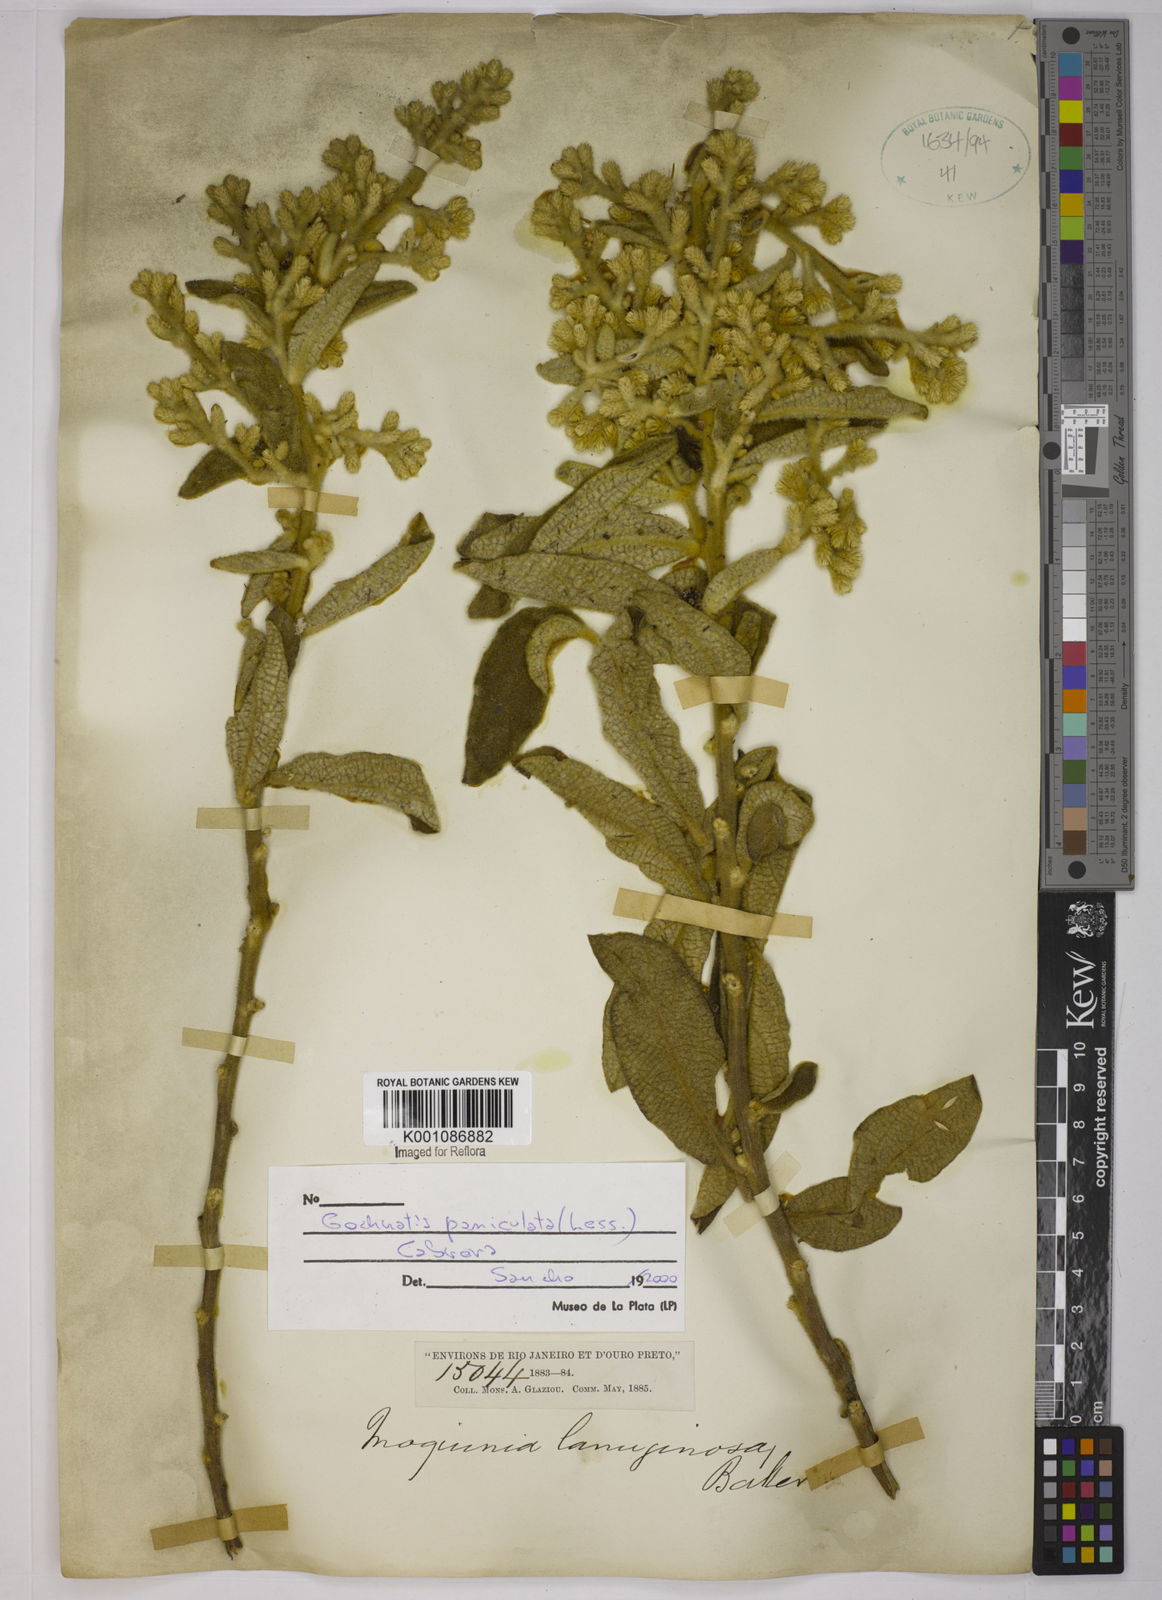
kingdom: Plantae
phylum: Tracheophyta
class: Magnoliopsida
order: Asterales
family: Asteraceae
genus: Moquiniastrum
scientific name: Moquiniastrum paniculatum
